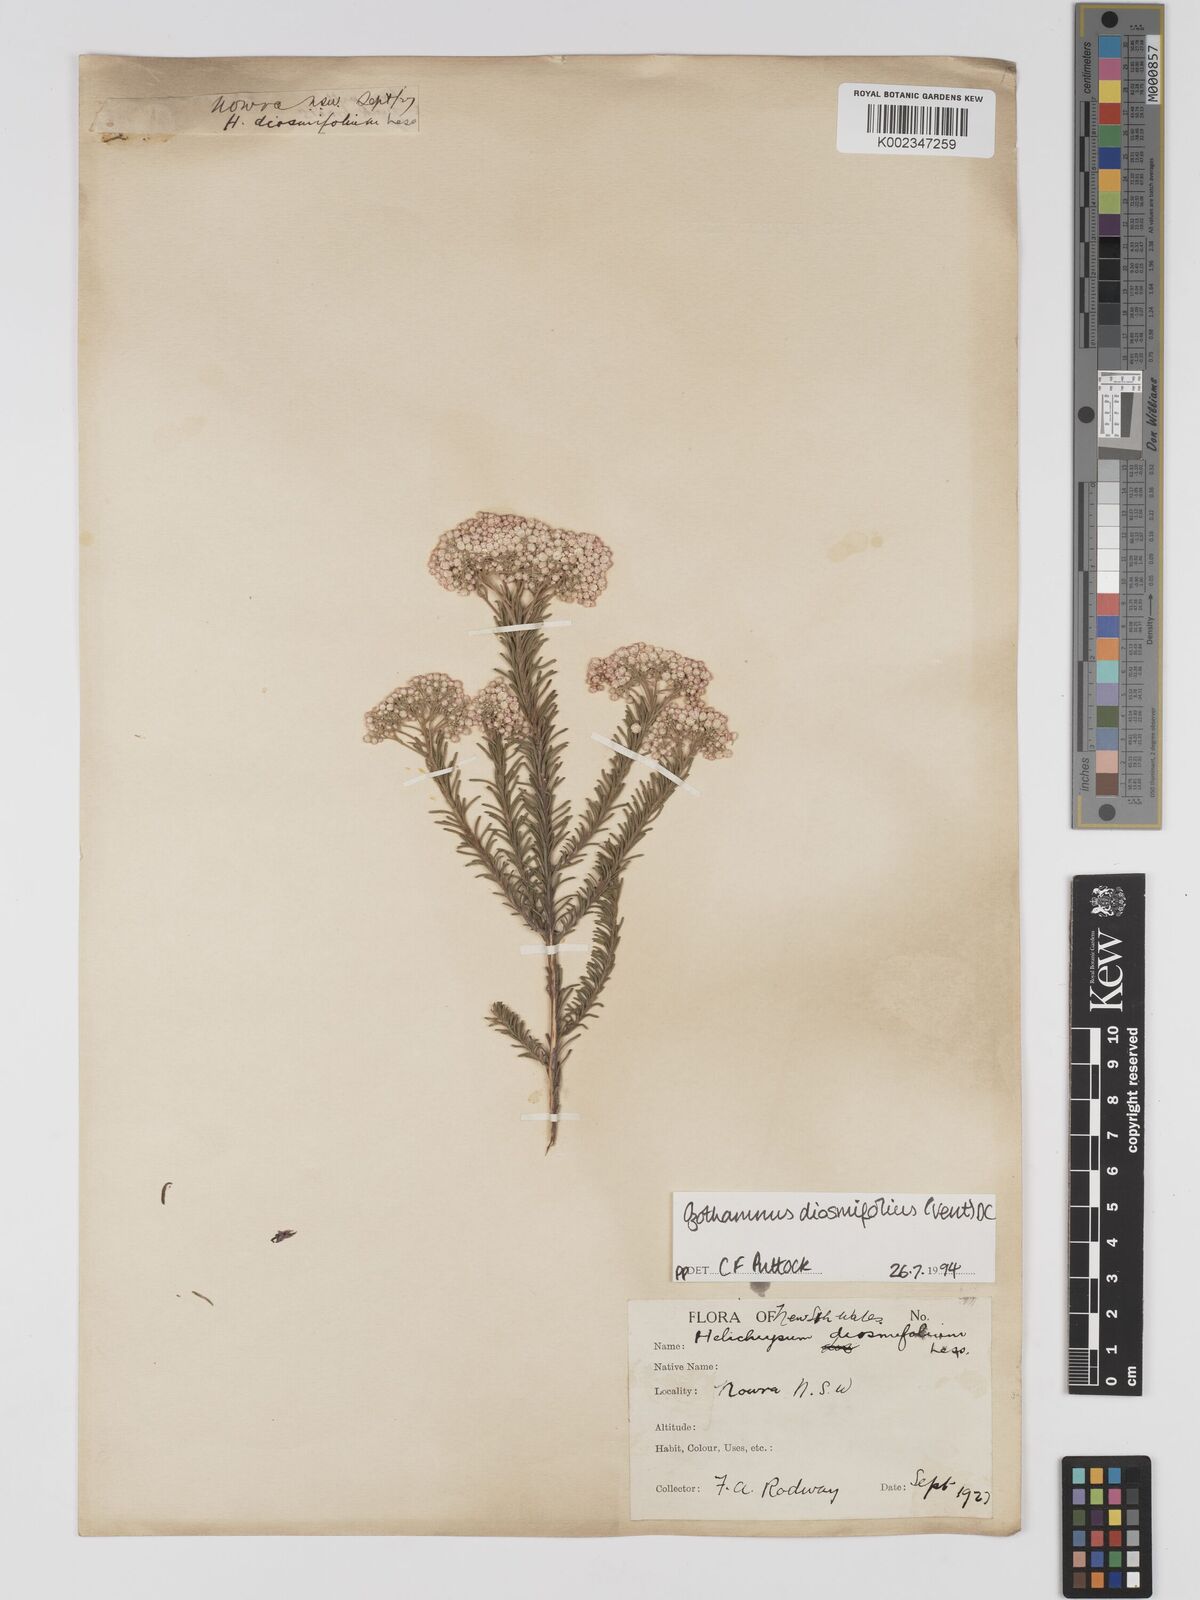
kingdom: Plantae
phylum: Tracheophyta
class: Magnoliopsida
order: Asterales
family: Asteraceae
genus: Ozothamnus
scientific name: Ozothamnus diosmifolius
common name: White-dogwood
